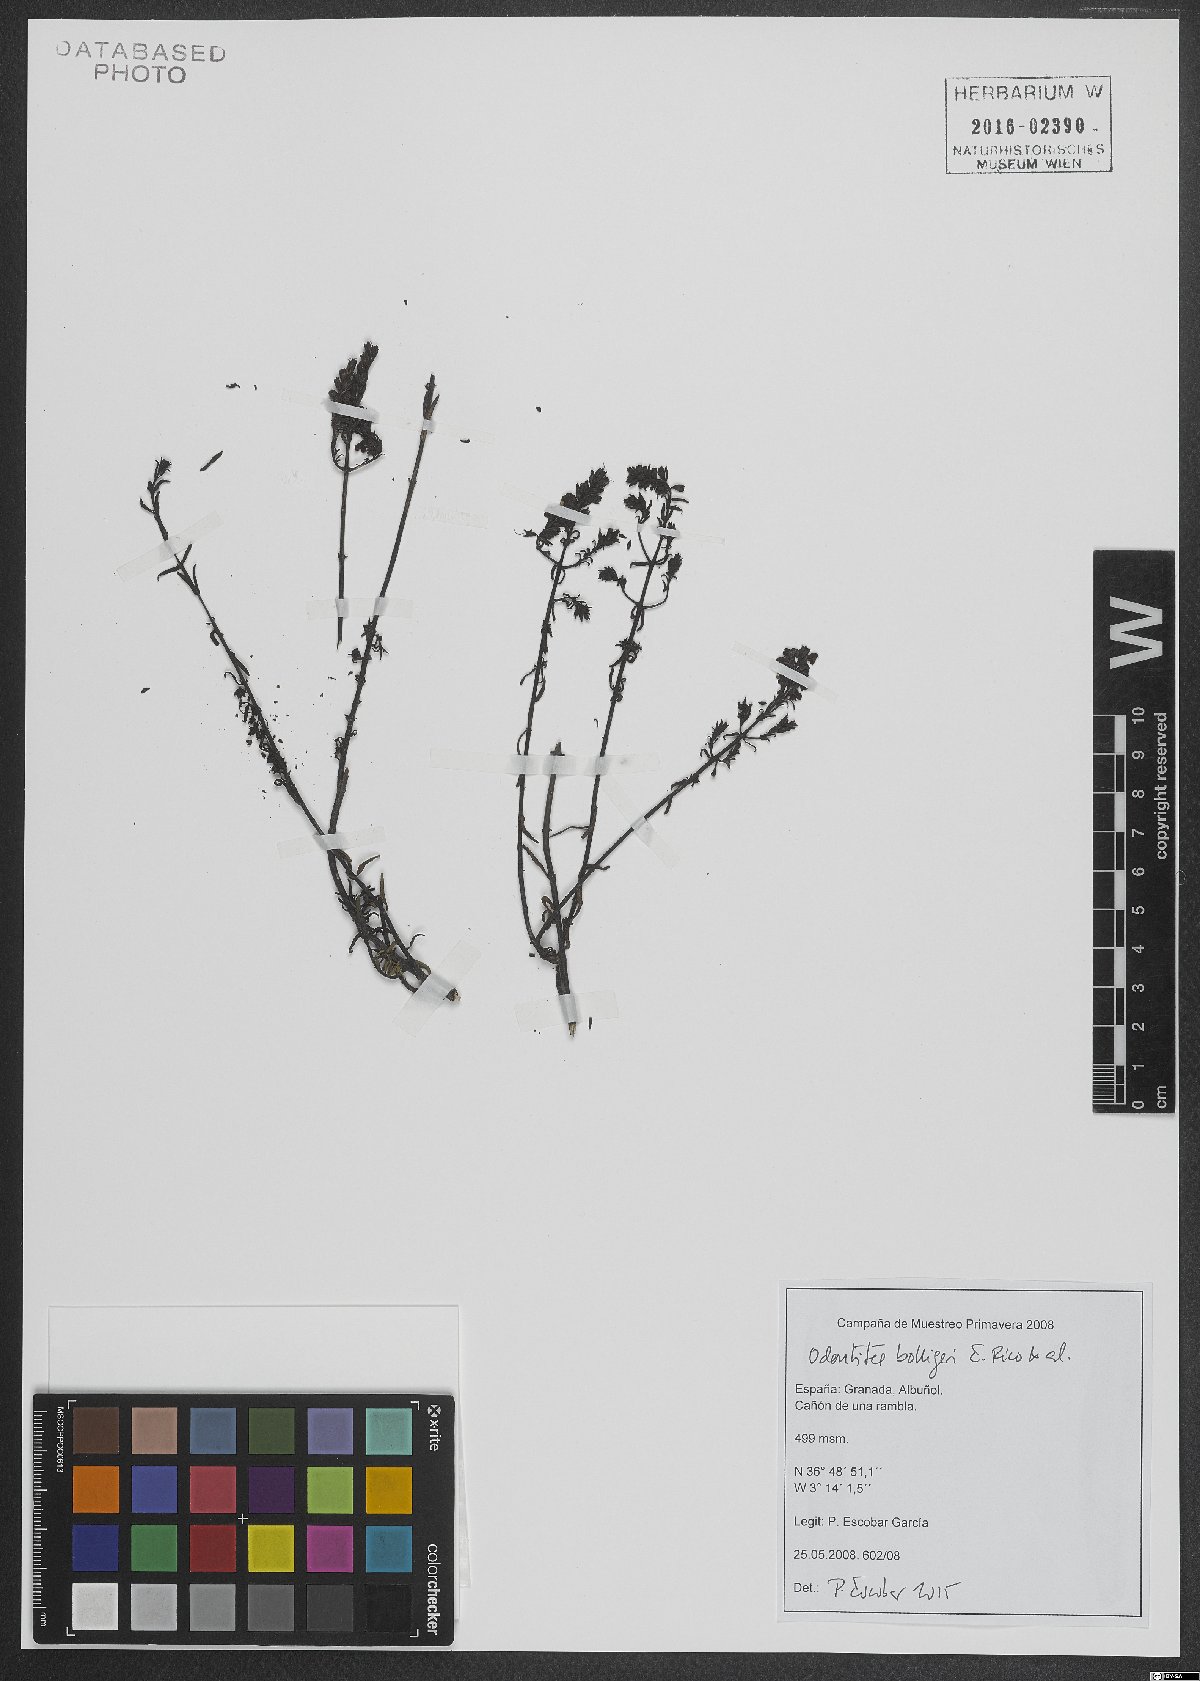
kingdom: Plantae
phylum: Tracheophyta
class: Magnoliopsida
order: Lamiales
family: Orobanchaceae
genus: Odontites
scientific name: Odontites bolligeri
